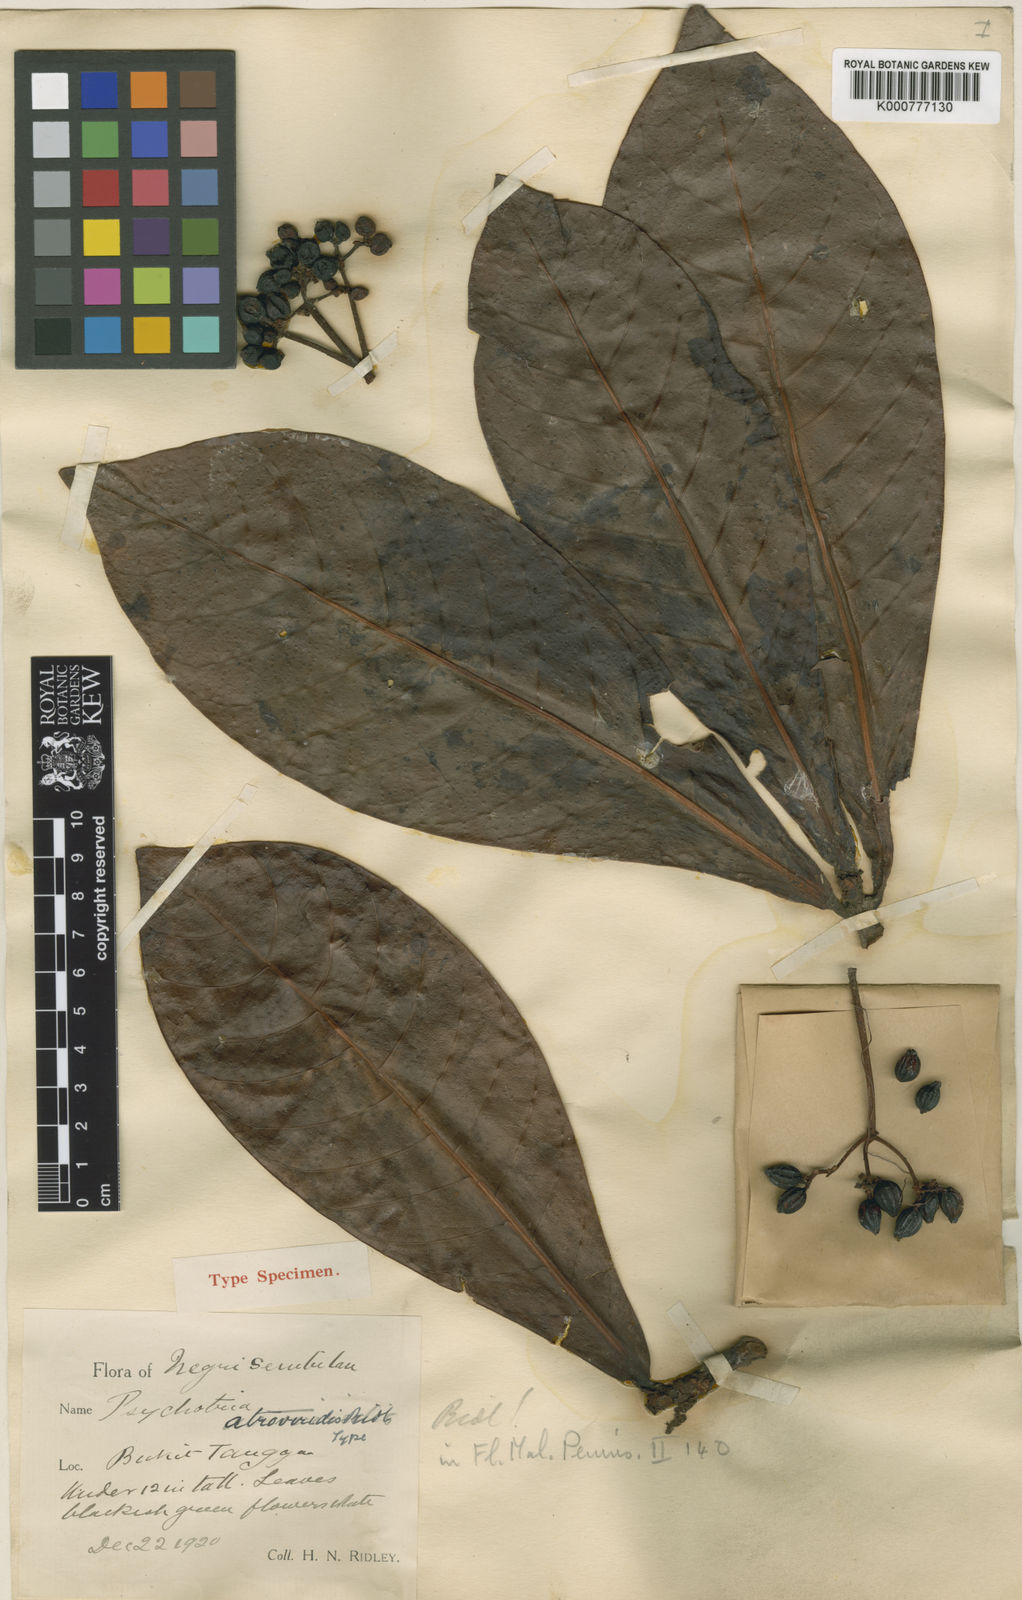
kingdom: Plantae
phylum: Tracheophyta
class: Magnoliopsida
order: Gentianales
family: Rubiaceae
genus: Psychotria
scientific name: Psychotria atroviridis
